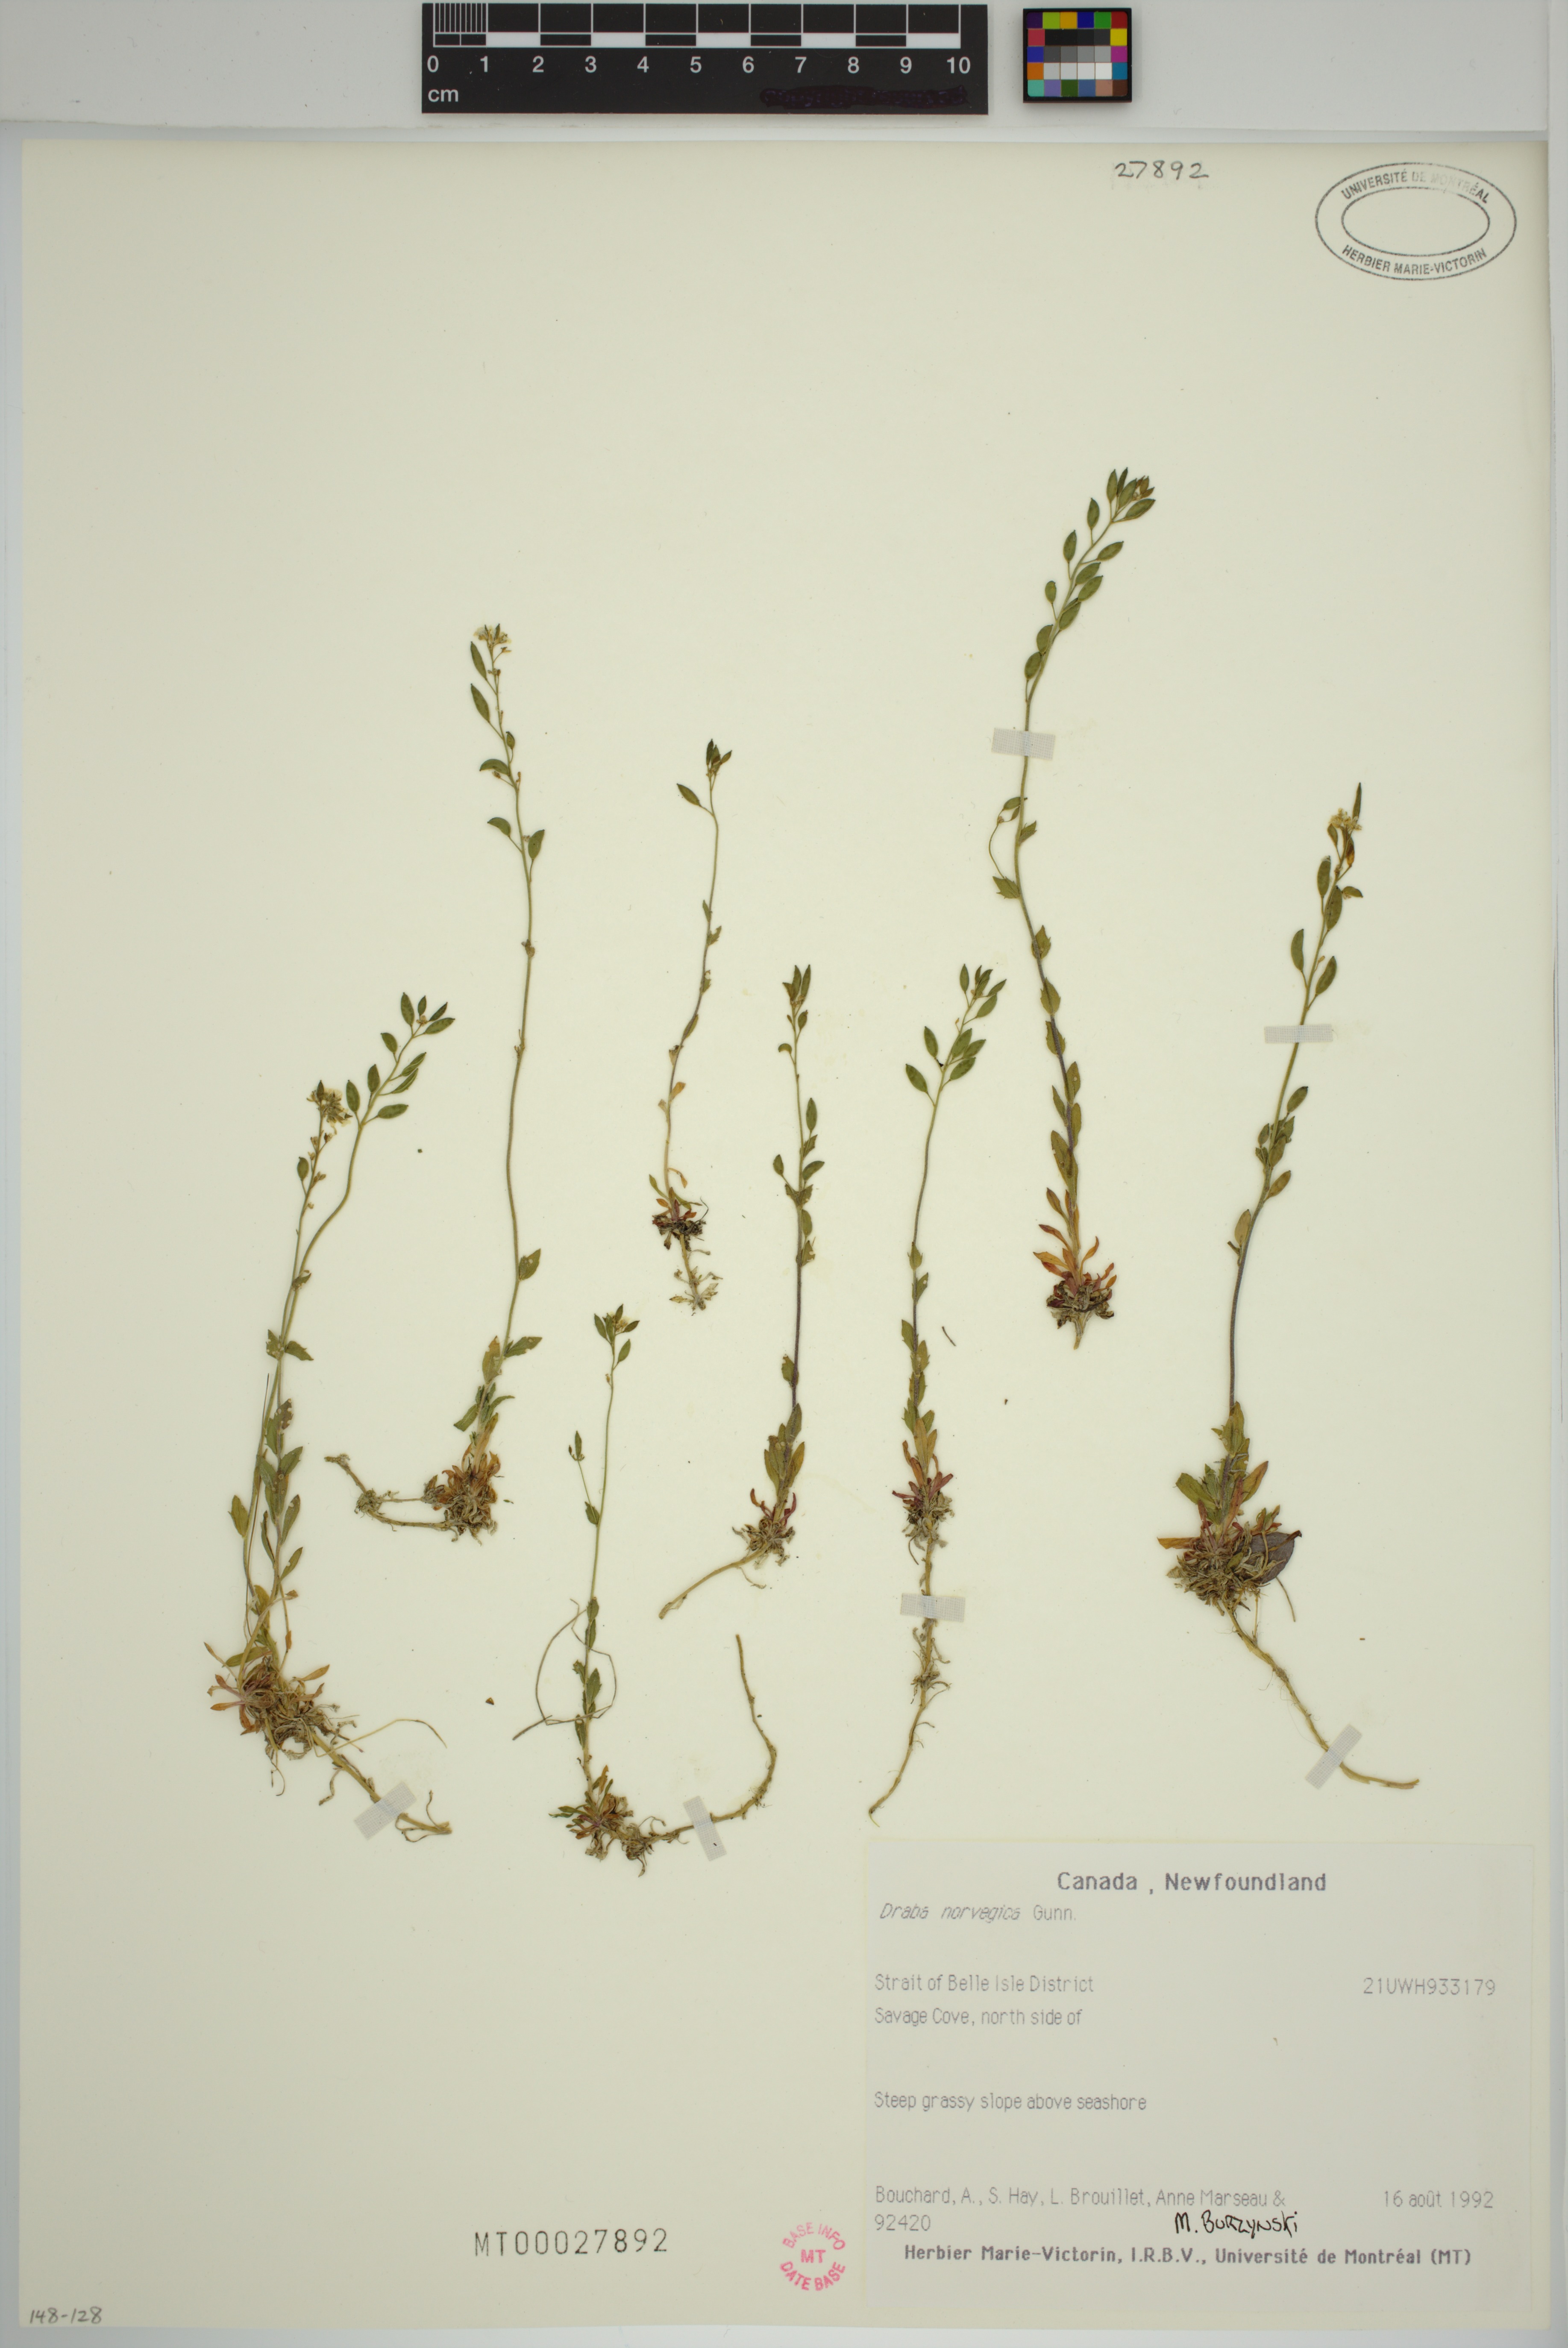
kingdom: Plantae
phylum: Tracheophyta
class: Magnoliopsida
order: Brassicales
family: Brassicaceae
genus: Draba
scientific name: Draba norvegica
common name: Rock whitlowgrass
